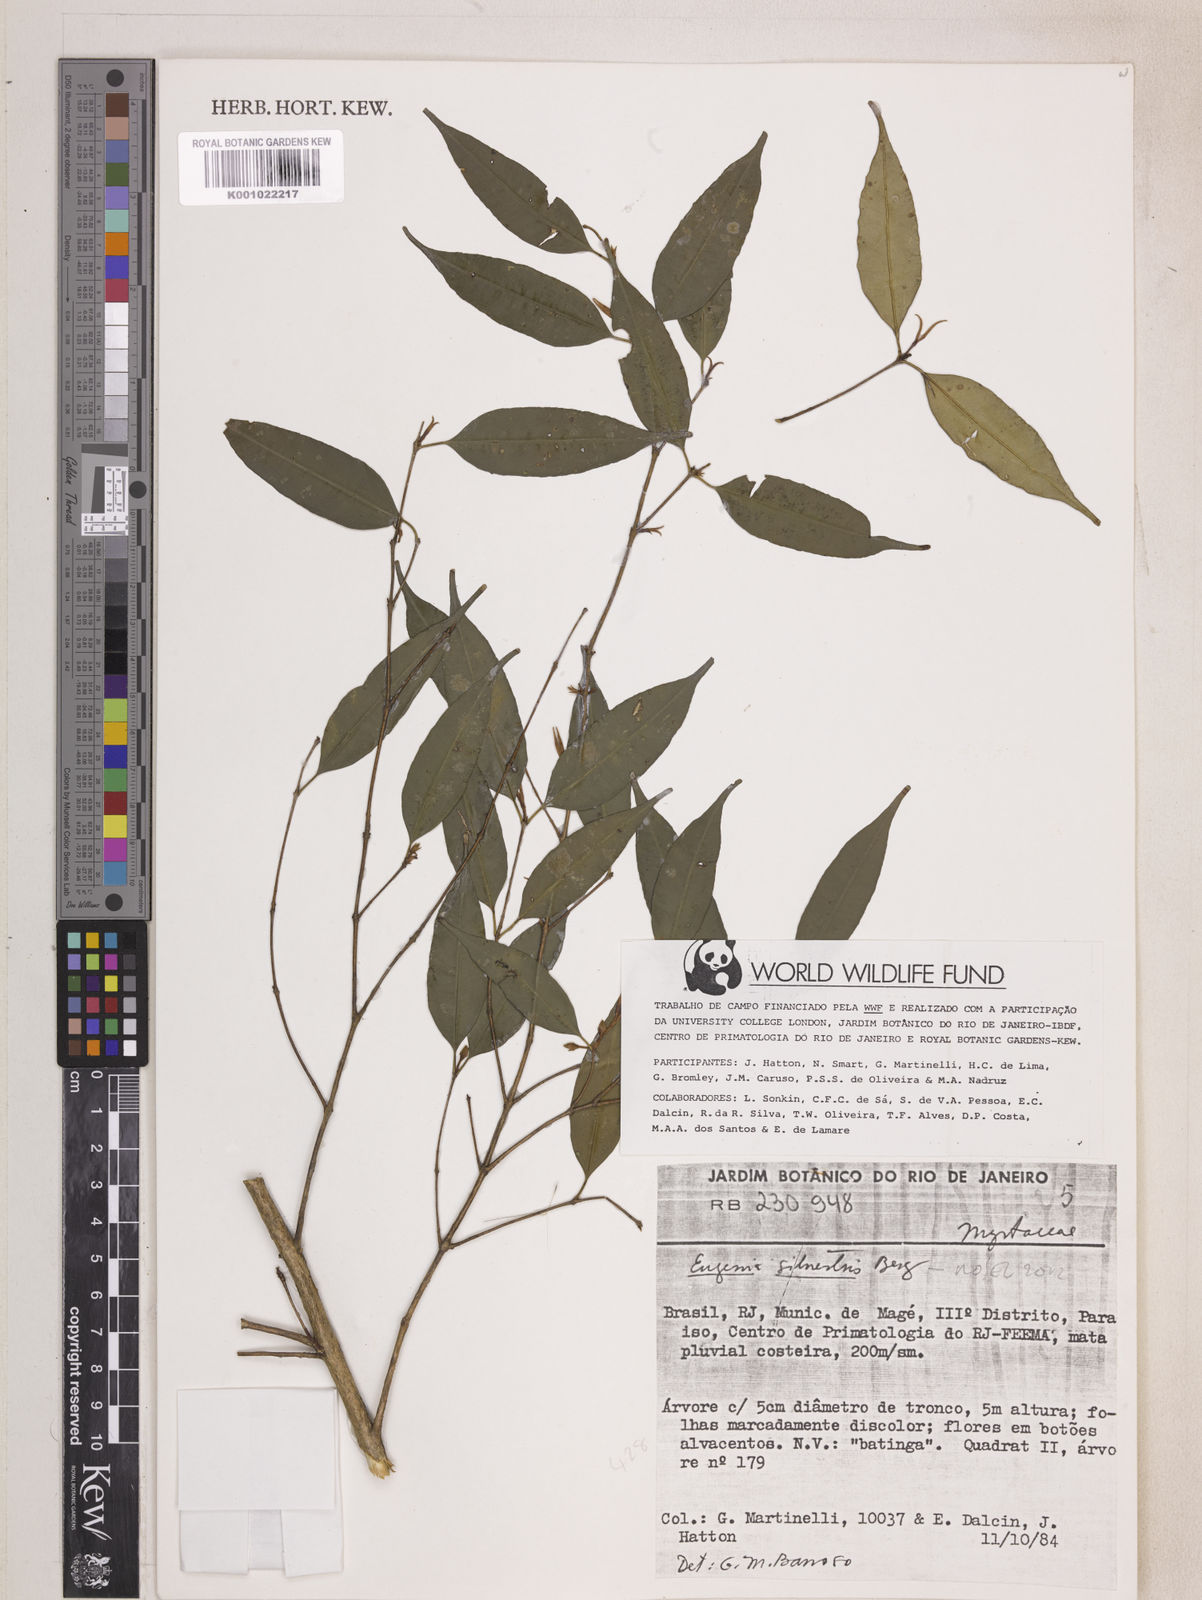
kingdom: Plantae
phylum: Tracheophyta
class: Magnoliopsida
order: Myrtales
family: Myrtaceae
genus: Eugenia
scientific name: Eugenia cuprea
